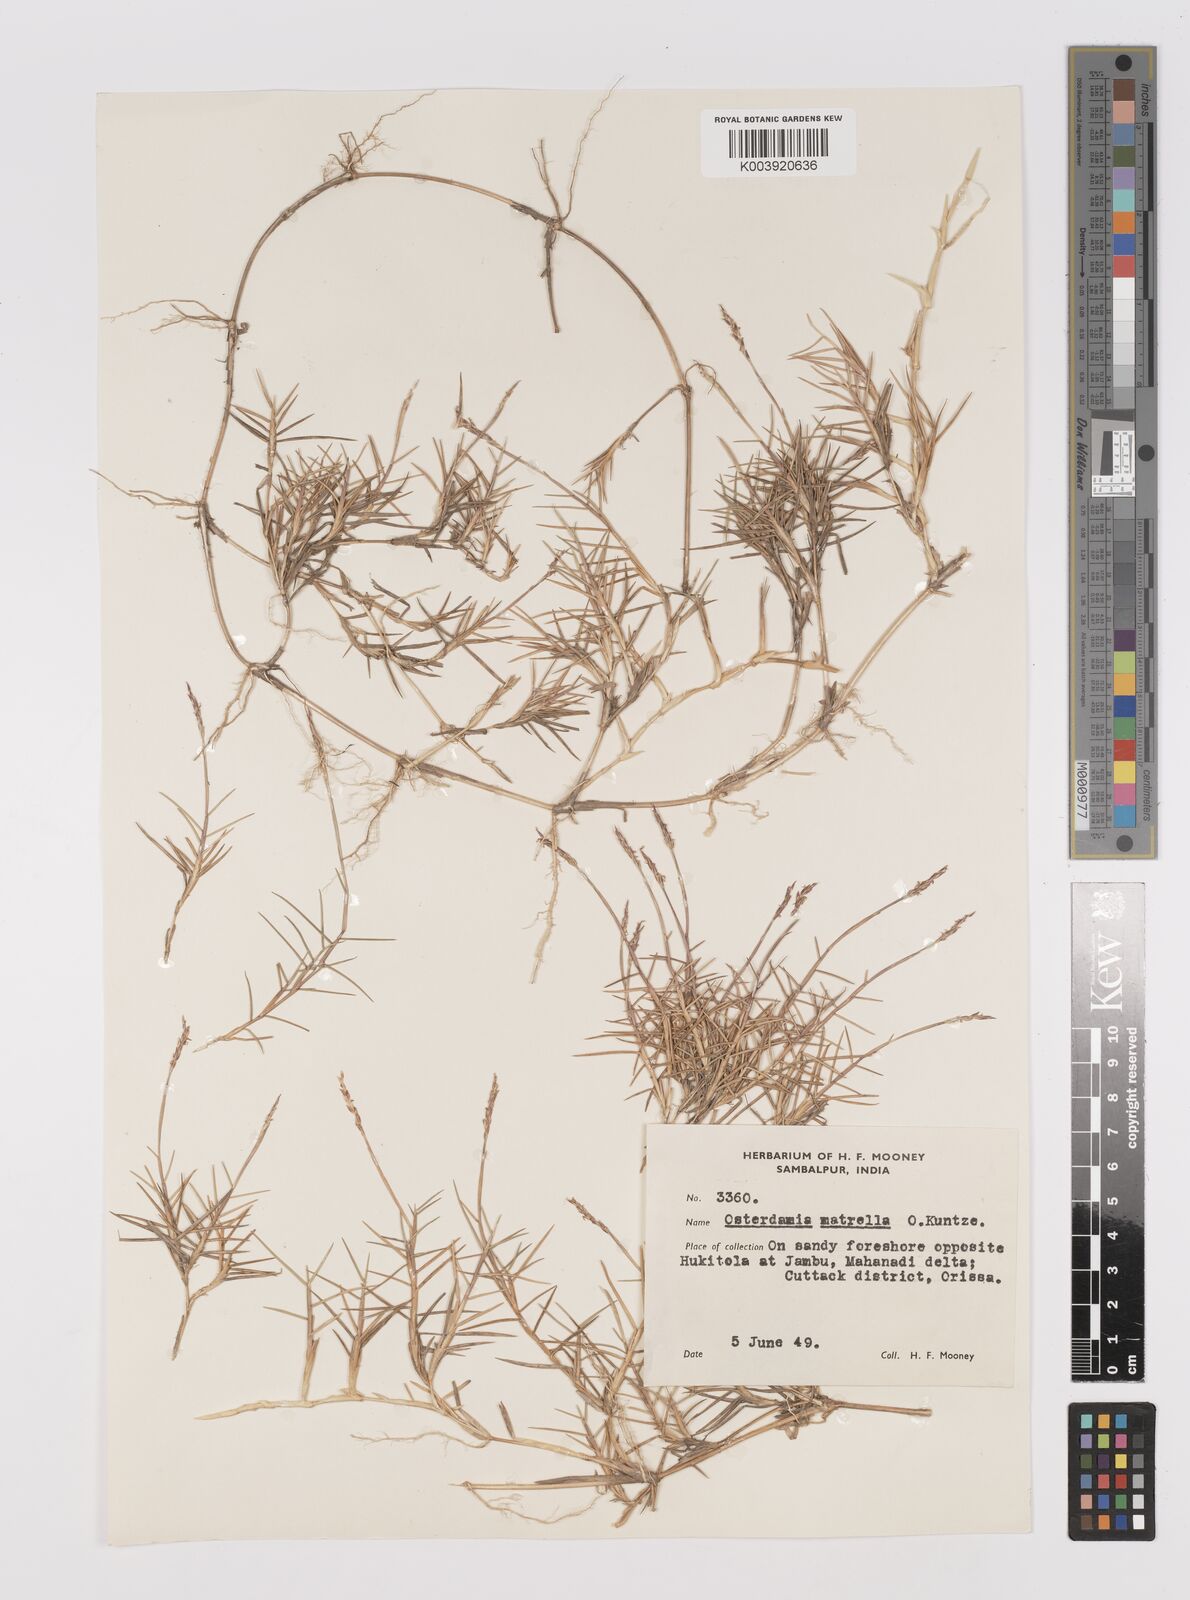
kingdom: Plantae
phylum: Tracheophyta
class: Liliopsida
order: Poales
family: Poaceae
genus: Zoysia
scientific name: Zoysia matrella
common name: Manila grass
